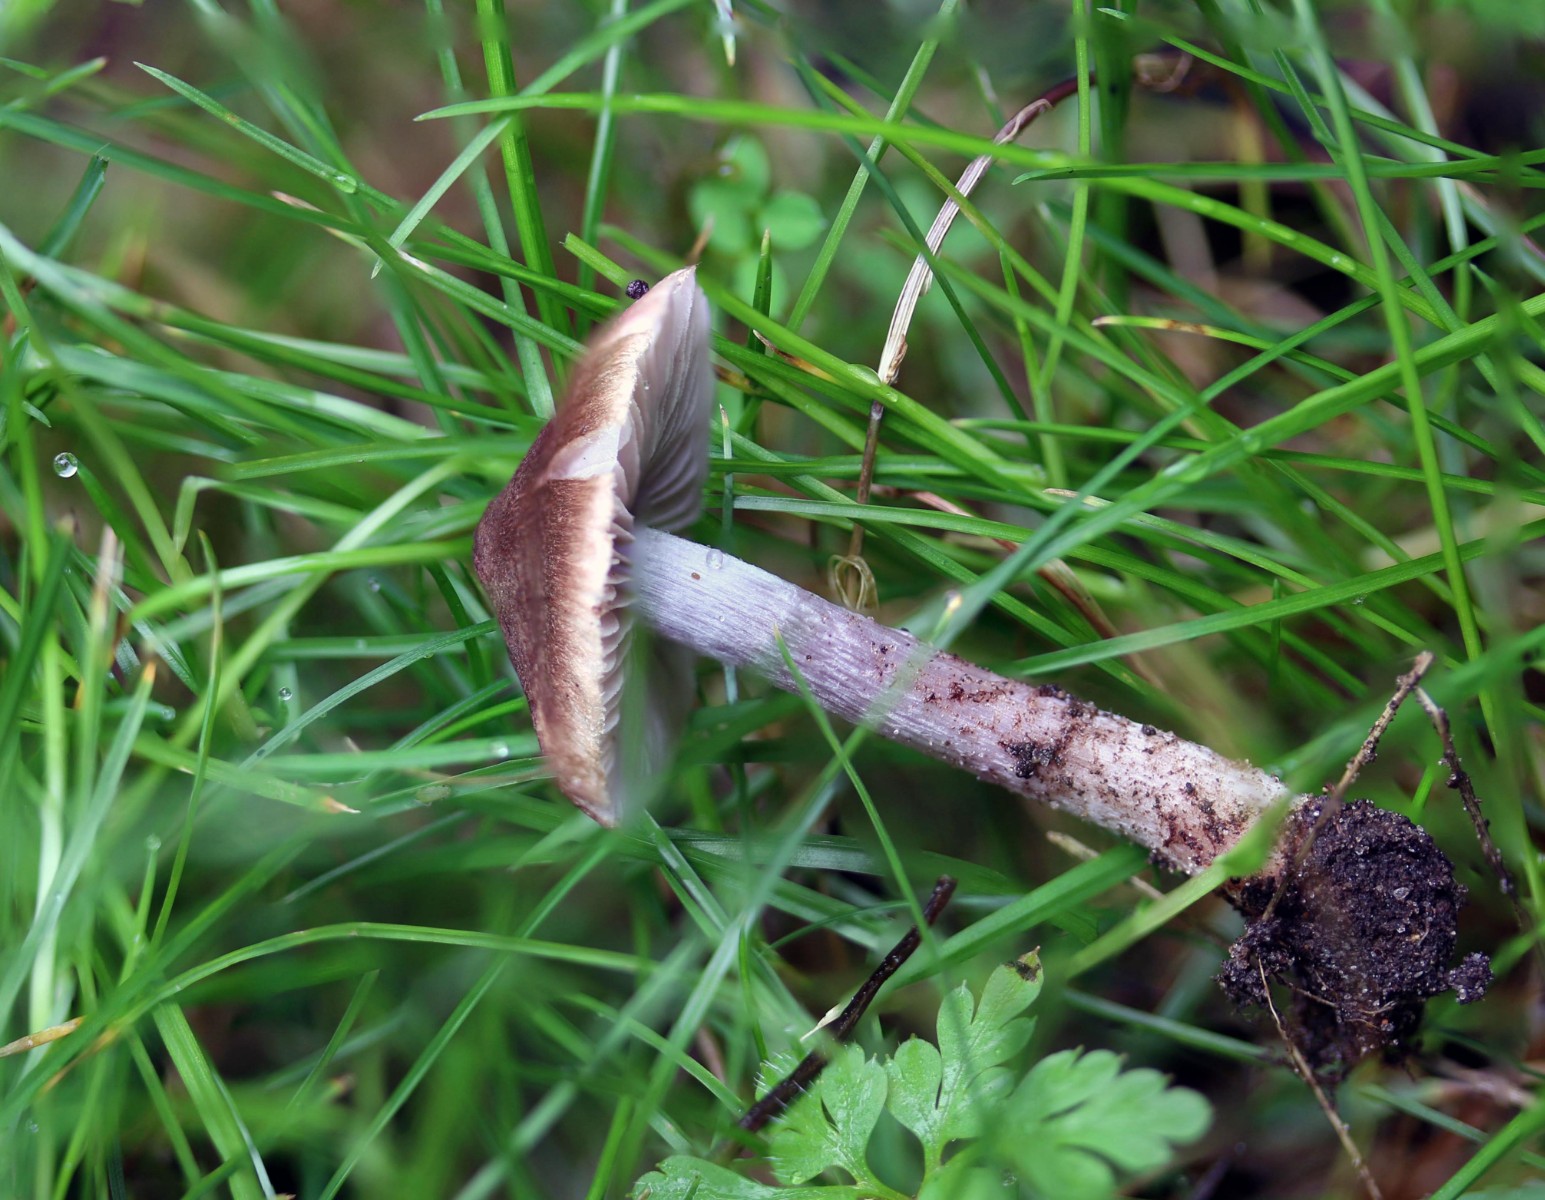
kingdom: Fungi
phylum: Basidiomycota
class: Agaricomycetes
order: Agaricales
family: Inocybaceae
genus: Inocybe
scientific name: Inocybe pusio
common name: violetfodet trævlhat
